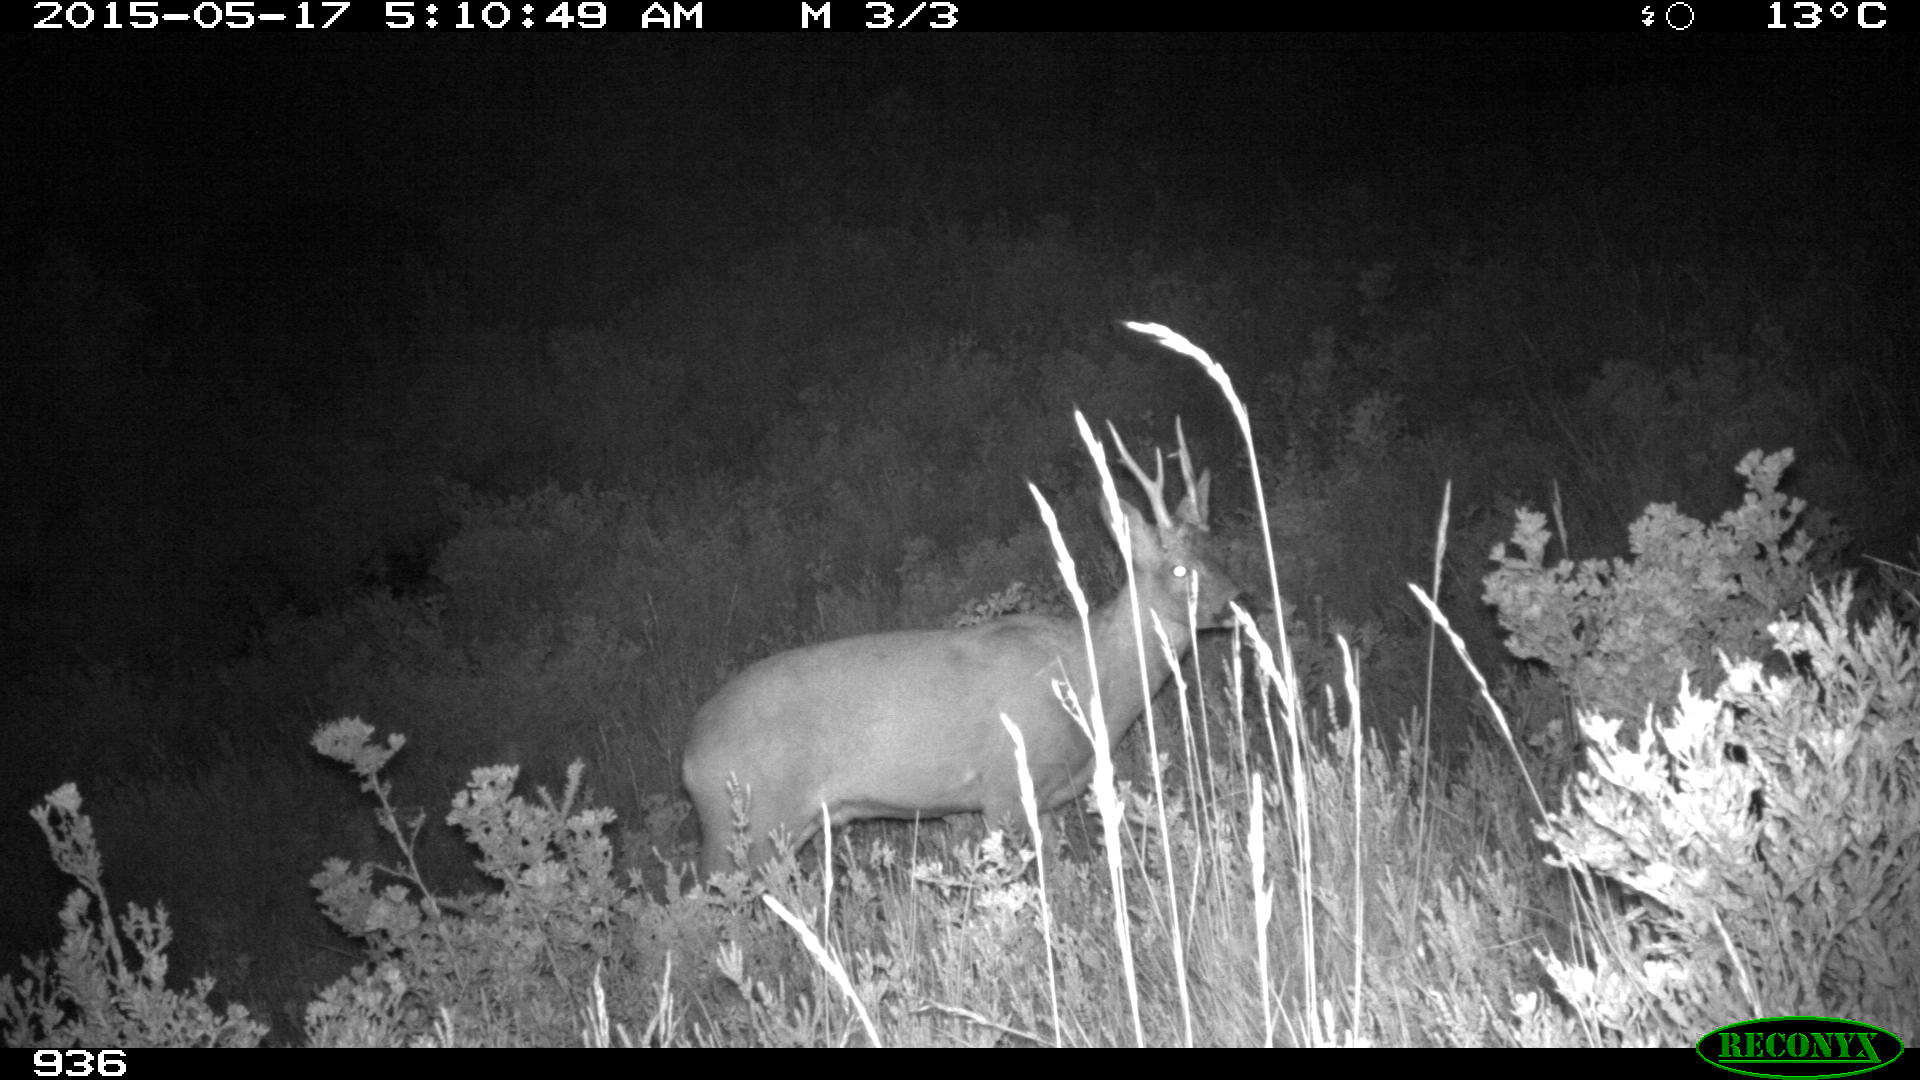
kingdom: Animalia
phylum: Chordata
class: Mammalia
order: Artiodactyla
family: Cervidae
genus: Capreolus
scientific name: Capreolus capreolus
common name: Western roe deer
